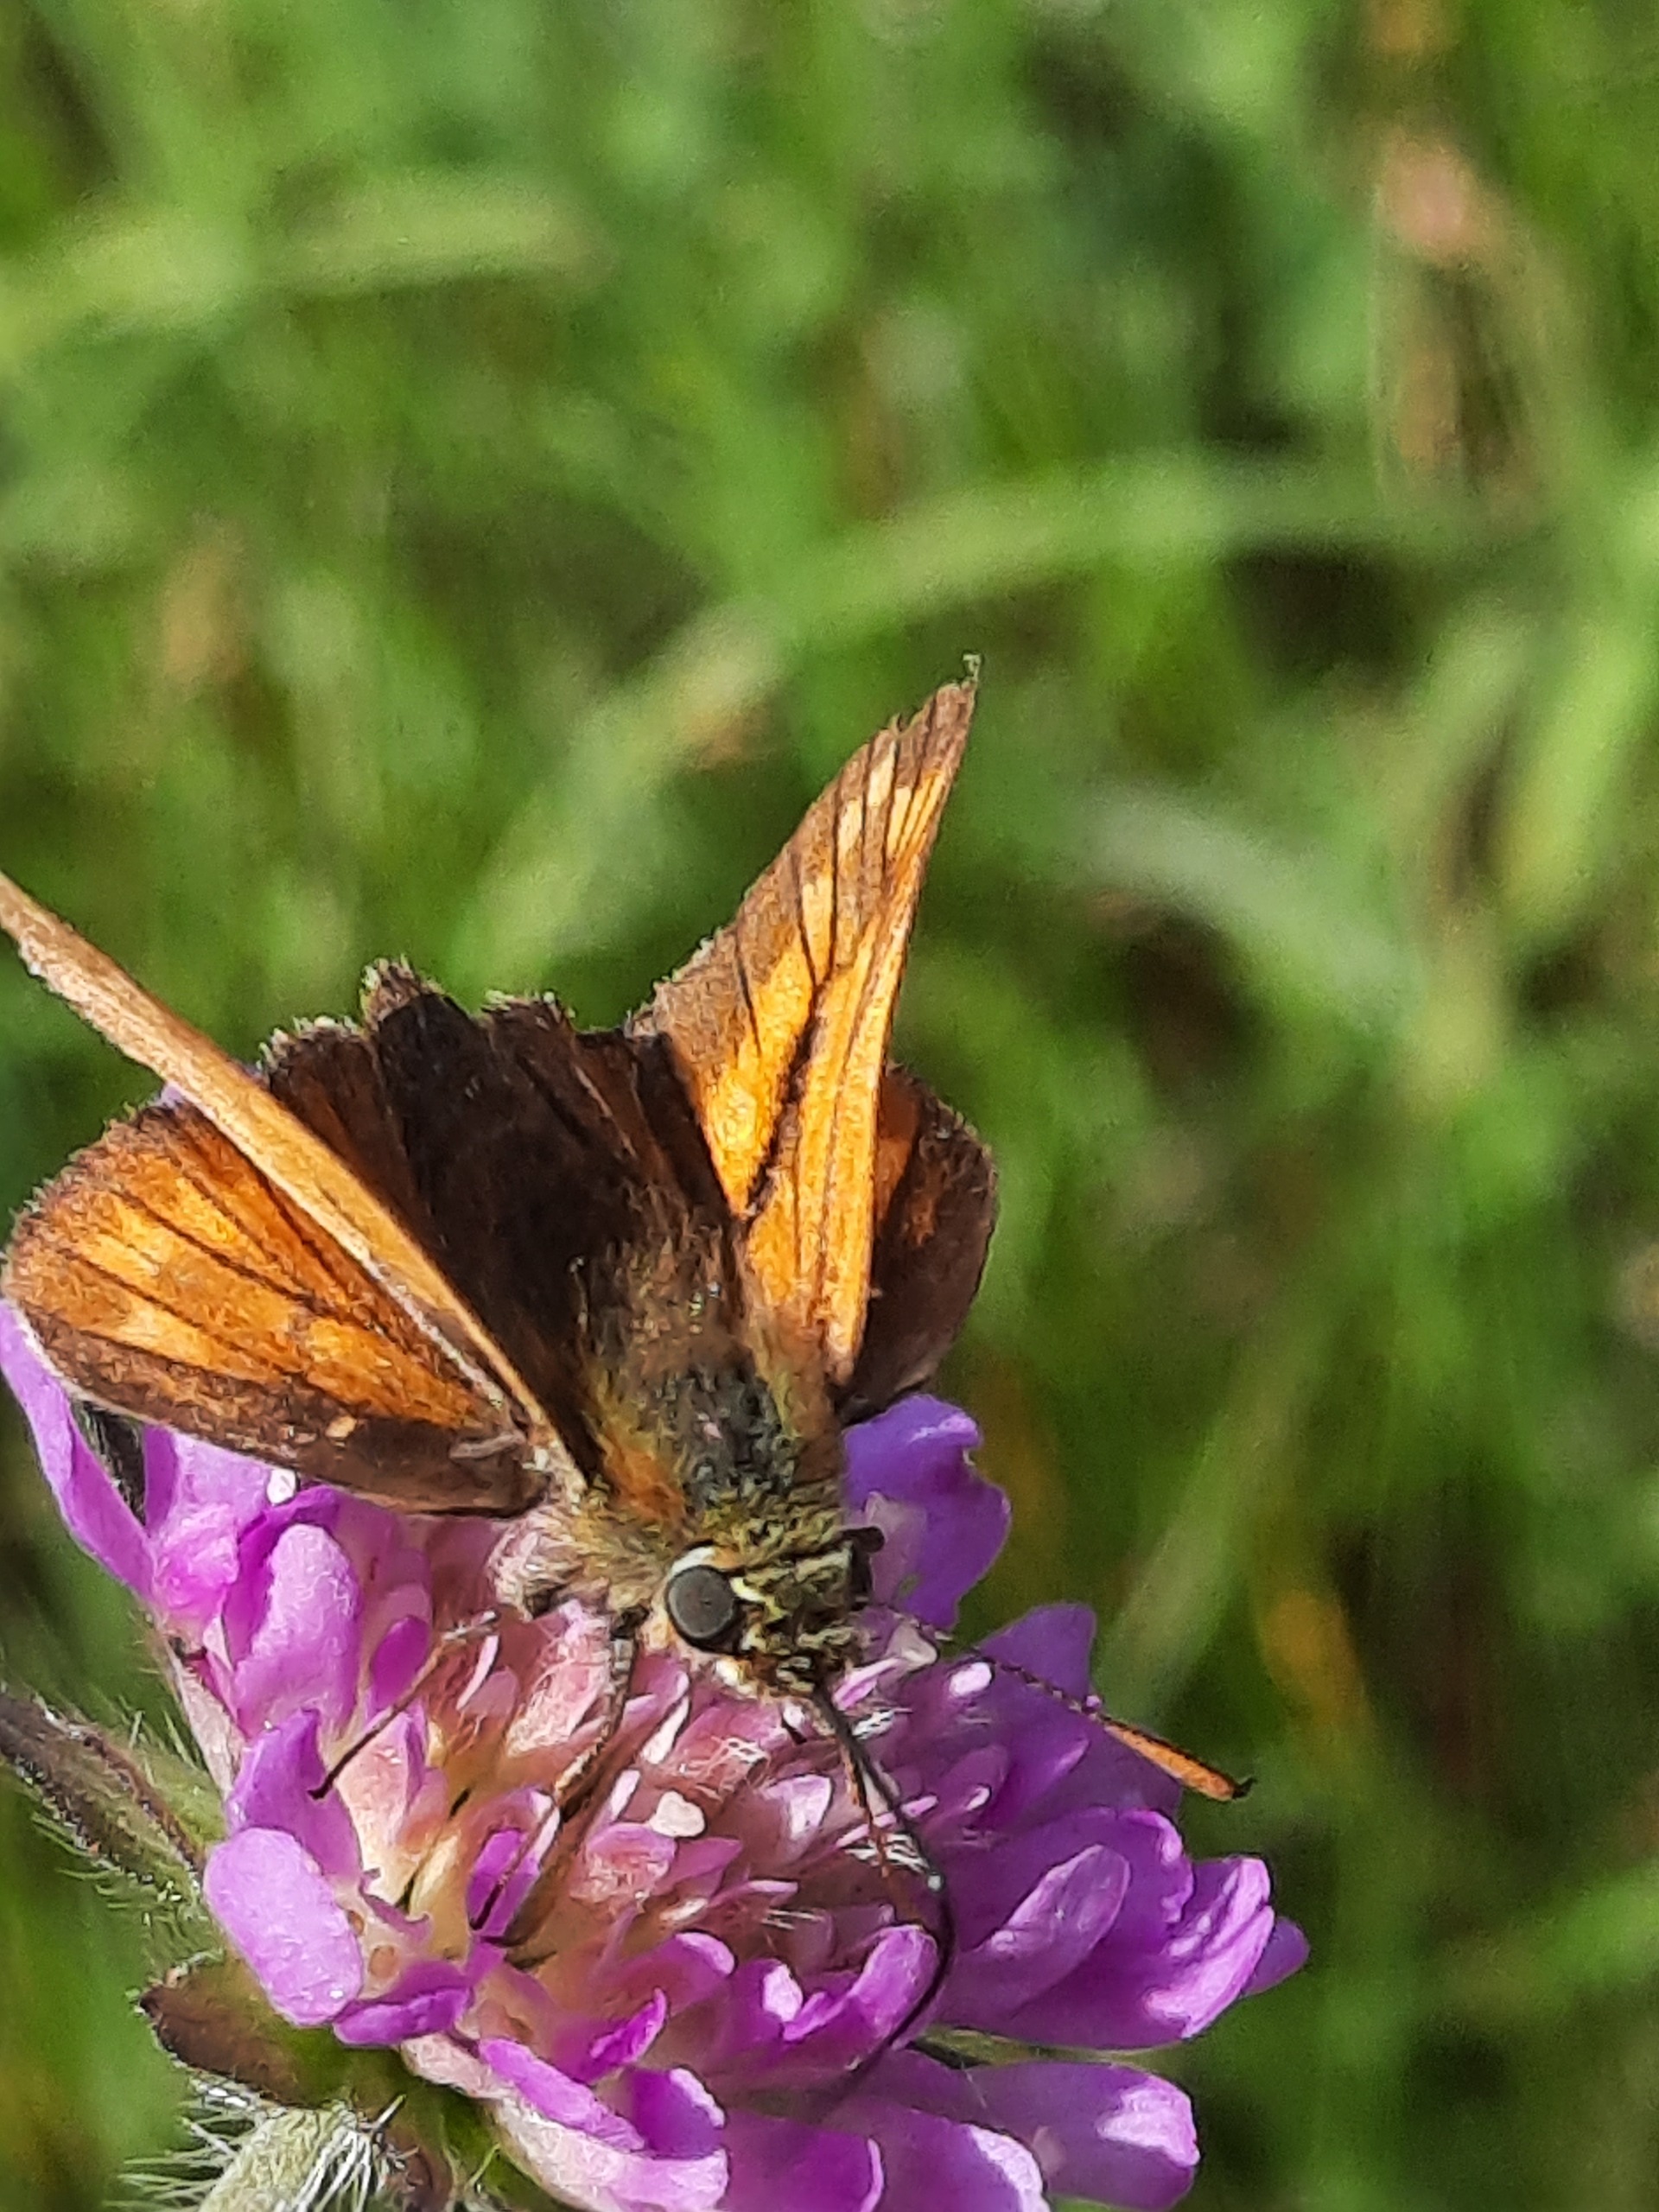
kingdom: Animalia
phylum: Arthropoda
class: Insecta
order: Lepidoptera
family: Hesperiidae
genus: Ochlodes
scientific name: Ochlodes venata
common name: Stor bredpande
